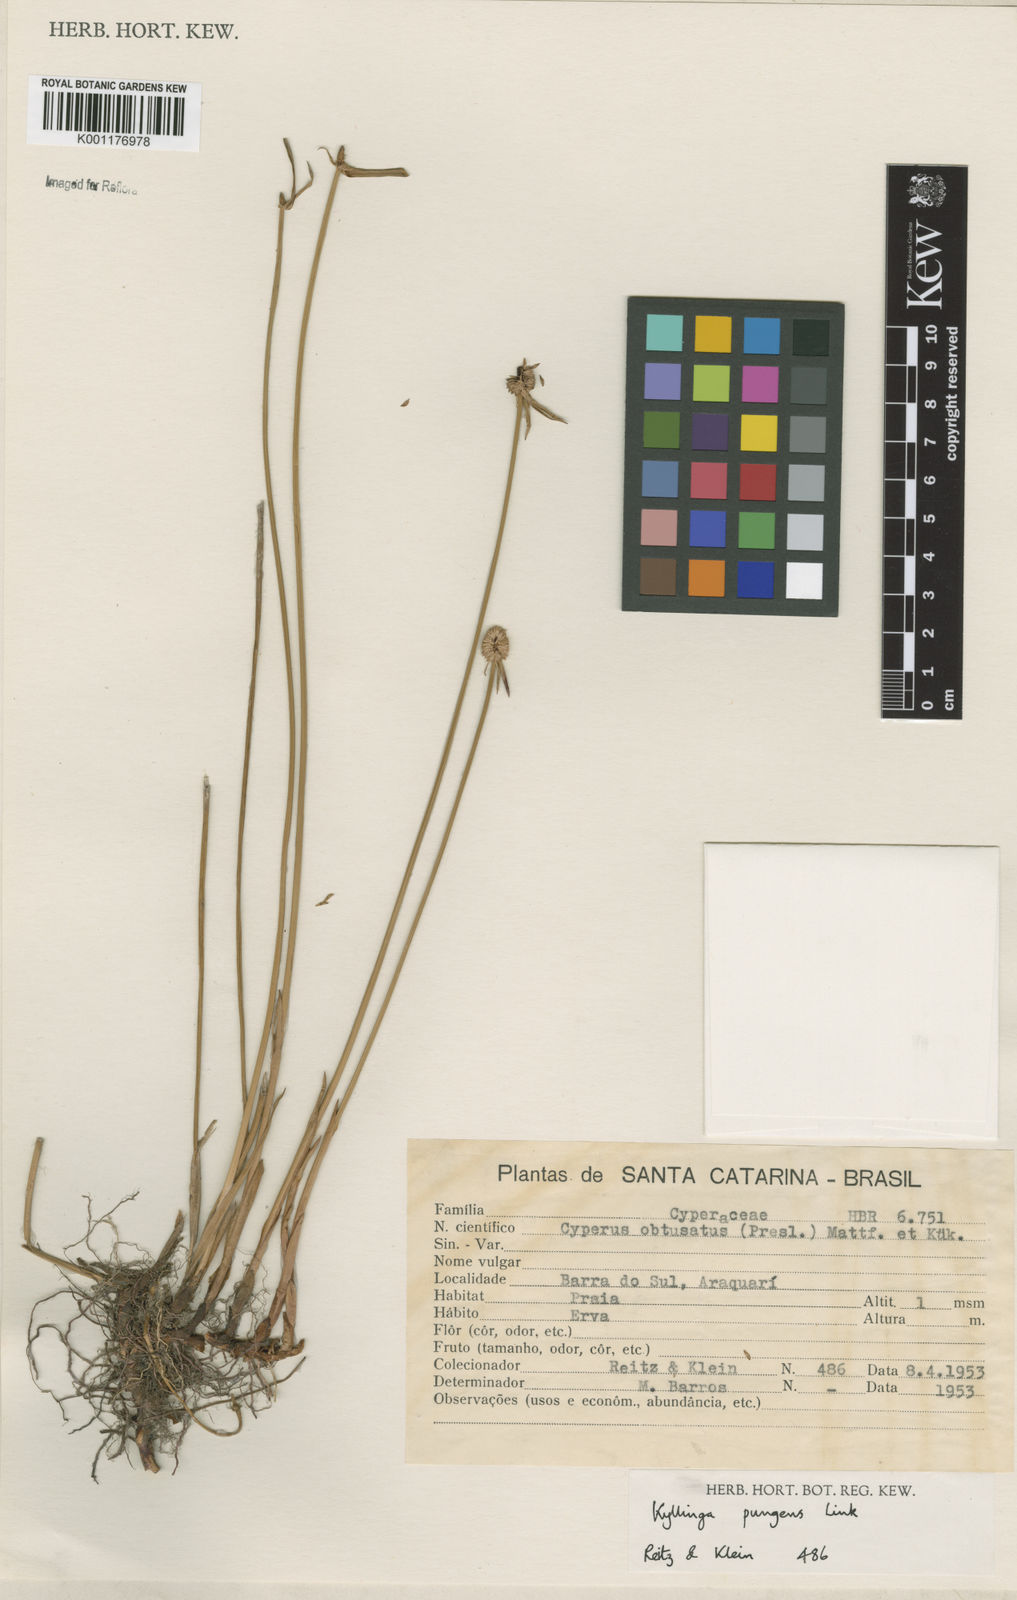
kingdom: Plantae
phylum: Tracheophyta
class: Liliopsida
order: Poales
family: Cyperaceae
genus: Cyperus
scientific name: Cyperus obtusatus
